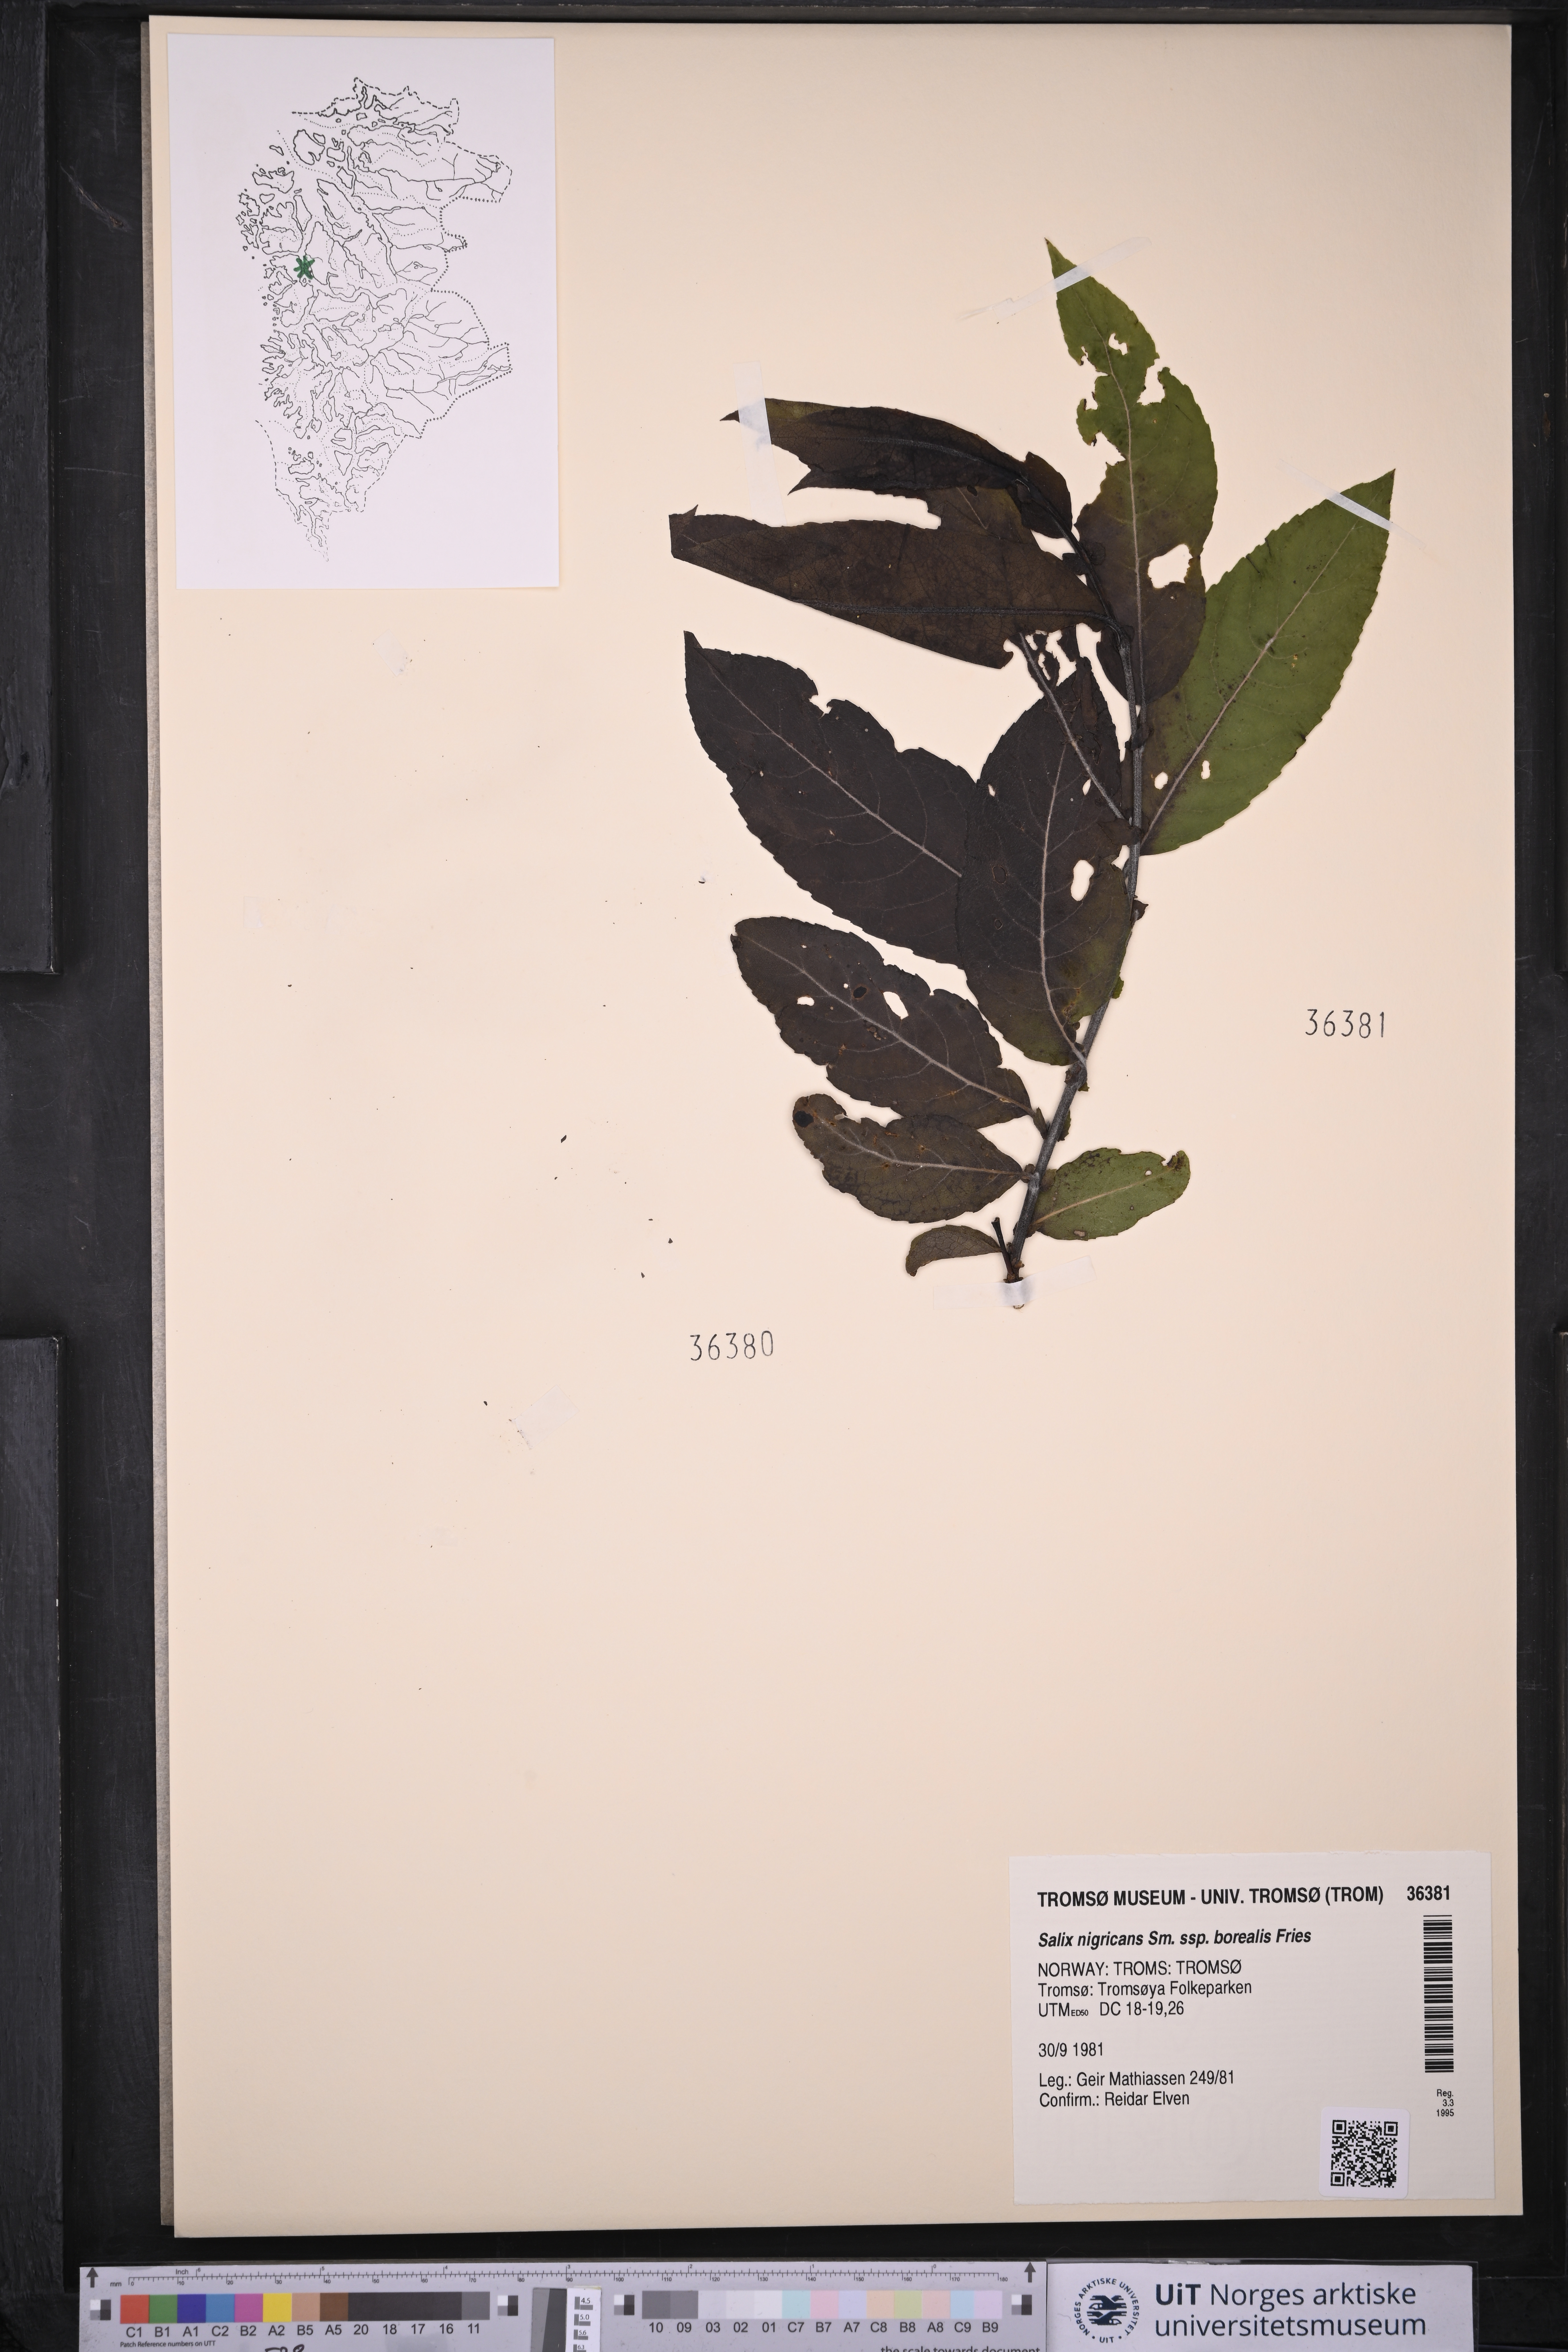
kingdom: Plantae
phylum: Tracheophyta
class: Magnoliopsida
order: Malpighiales
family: Salicaceae
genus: Salix
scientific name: Salix myrsinifolia
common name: Dark-leaved willow
